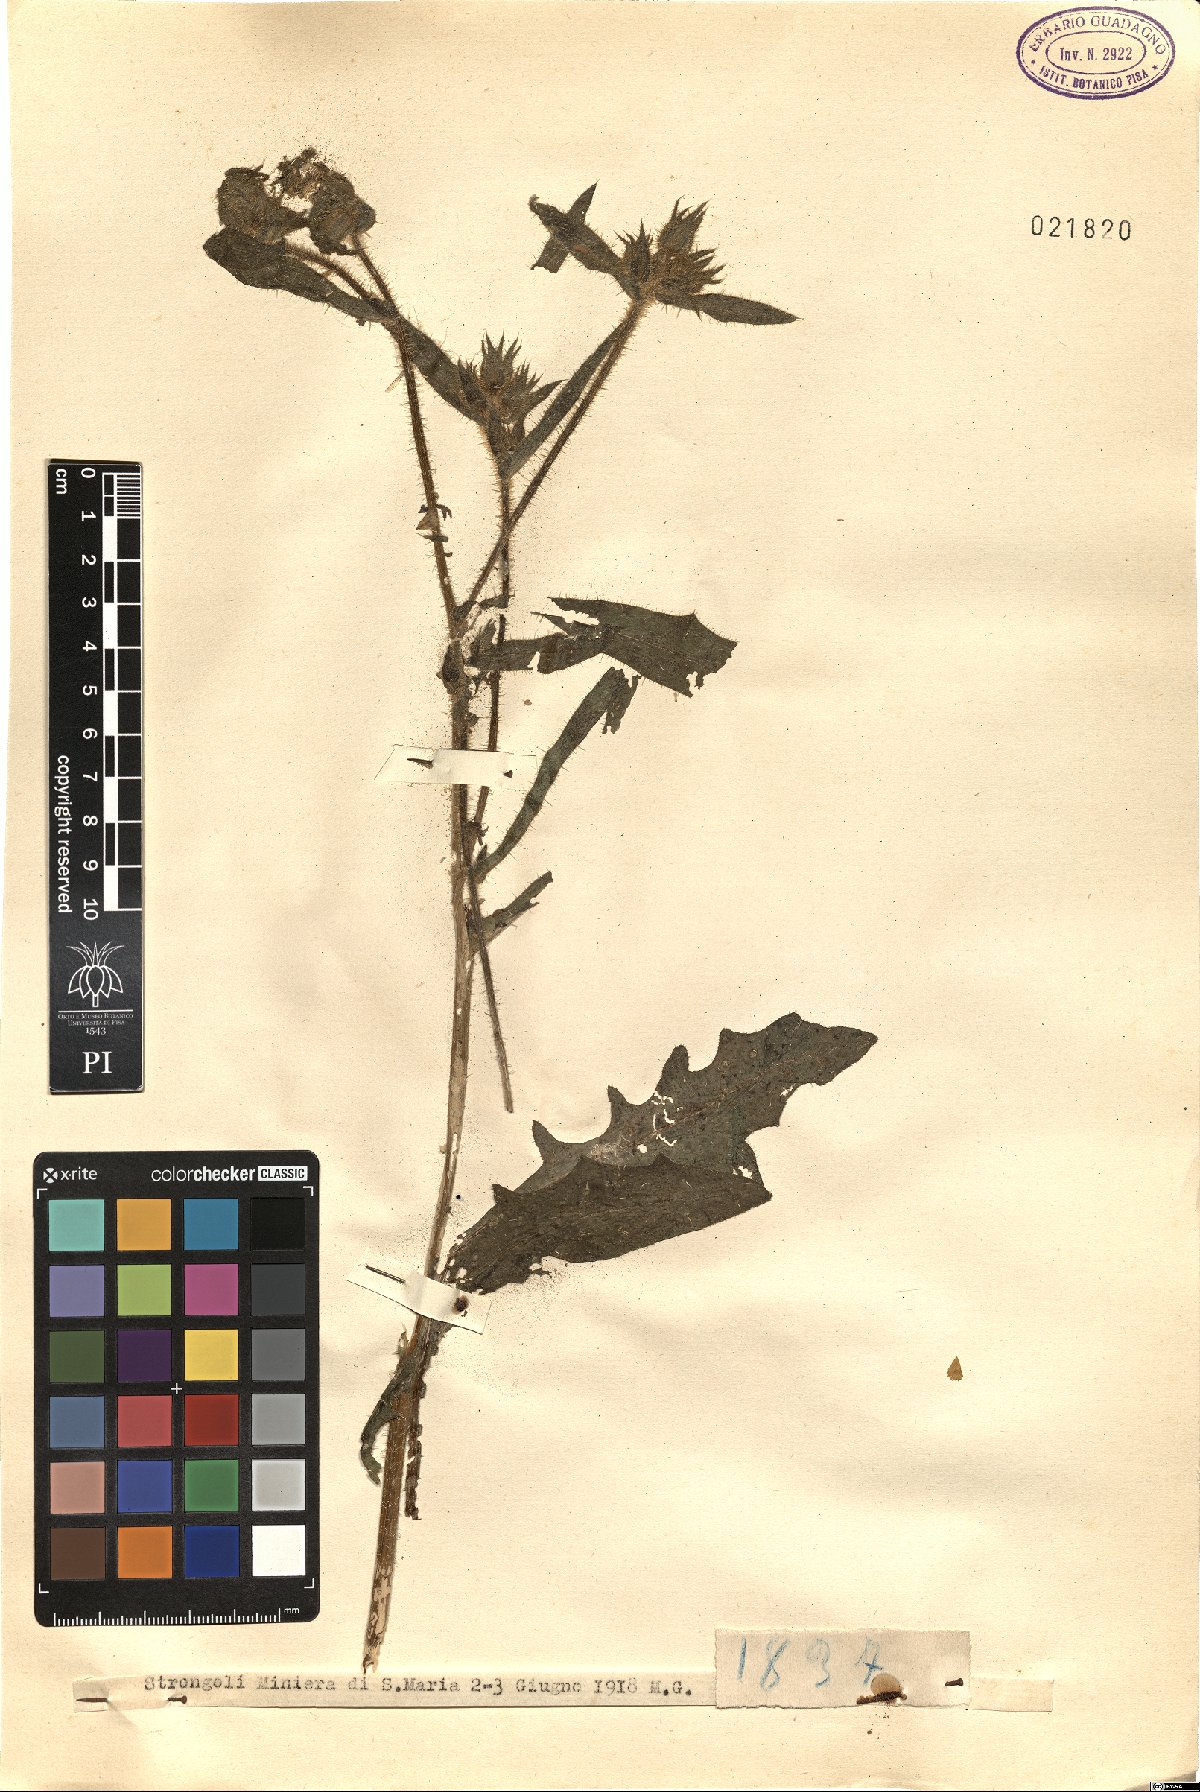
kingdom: Plantae
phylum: Tracheophyta
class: Magnoliopsida
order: Asterales
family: Asteraceae
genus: Picris
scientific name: Picris
